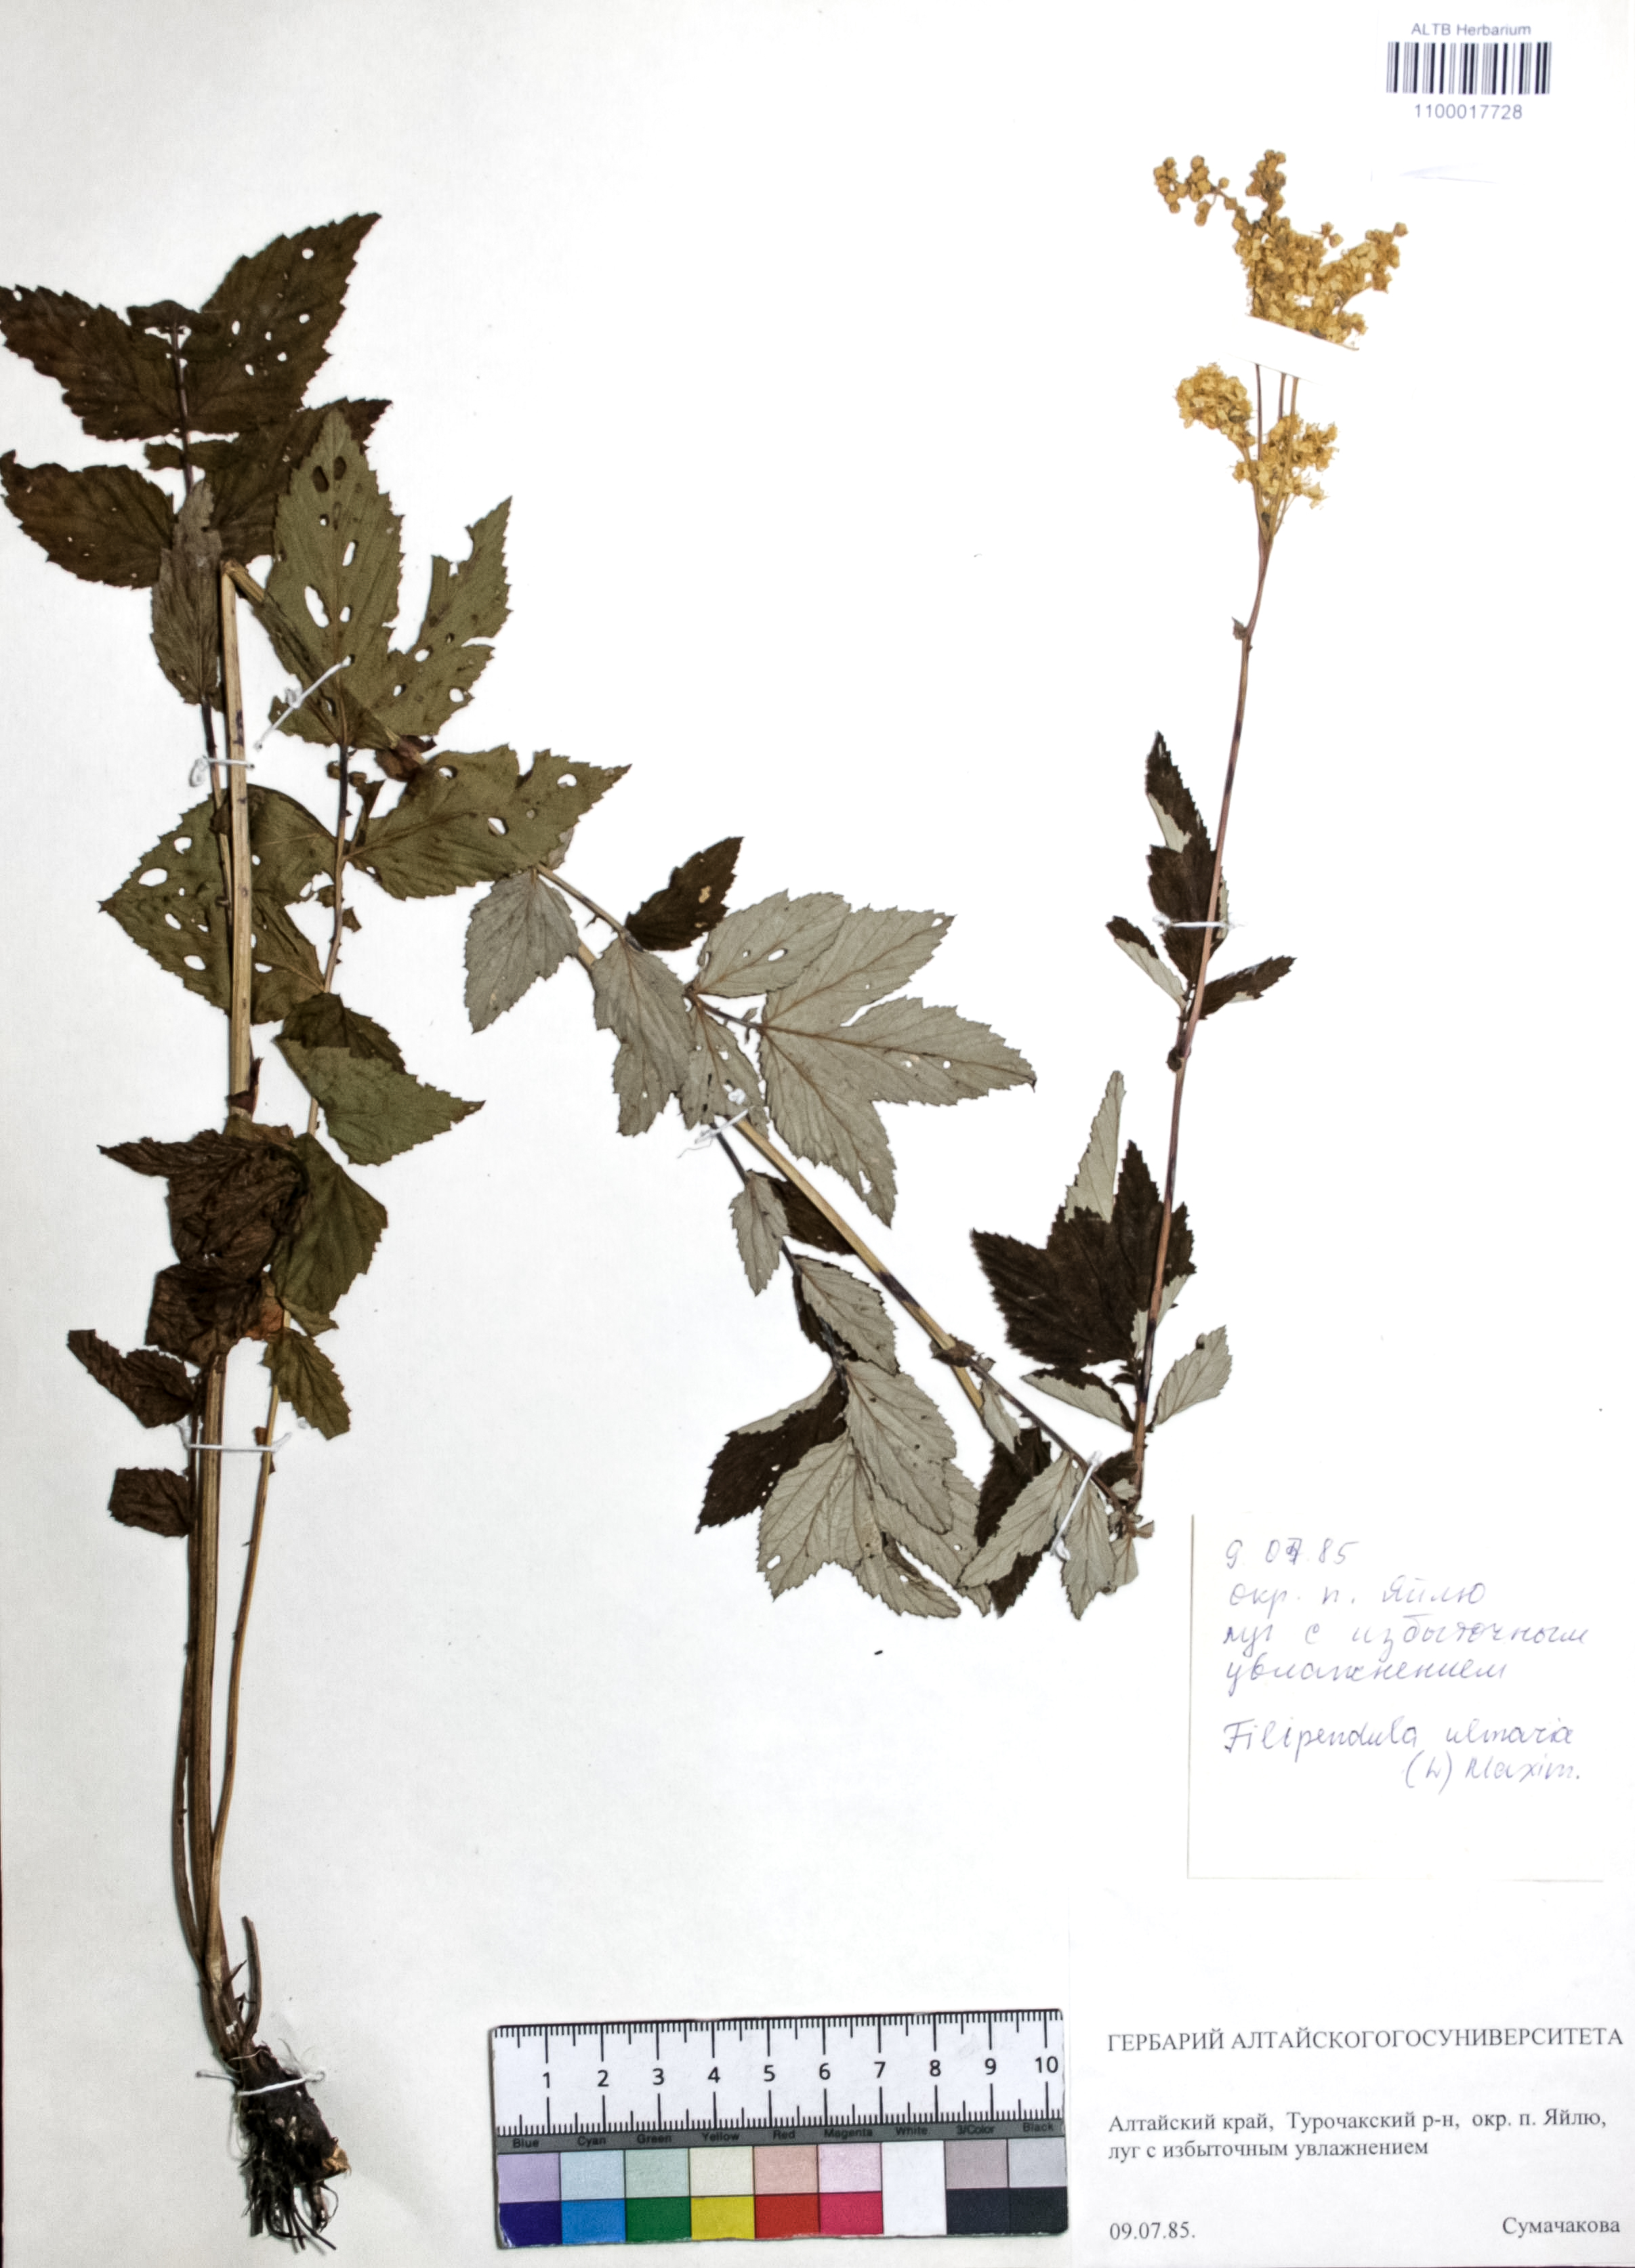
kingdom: Plantae
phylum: Tracheophyta
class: Magnoliopsida
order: Rosales
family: Rosaceae
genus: Filipendula
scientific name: Filipendula ulmaria
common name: Meadowsweet
